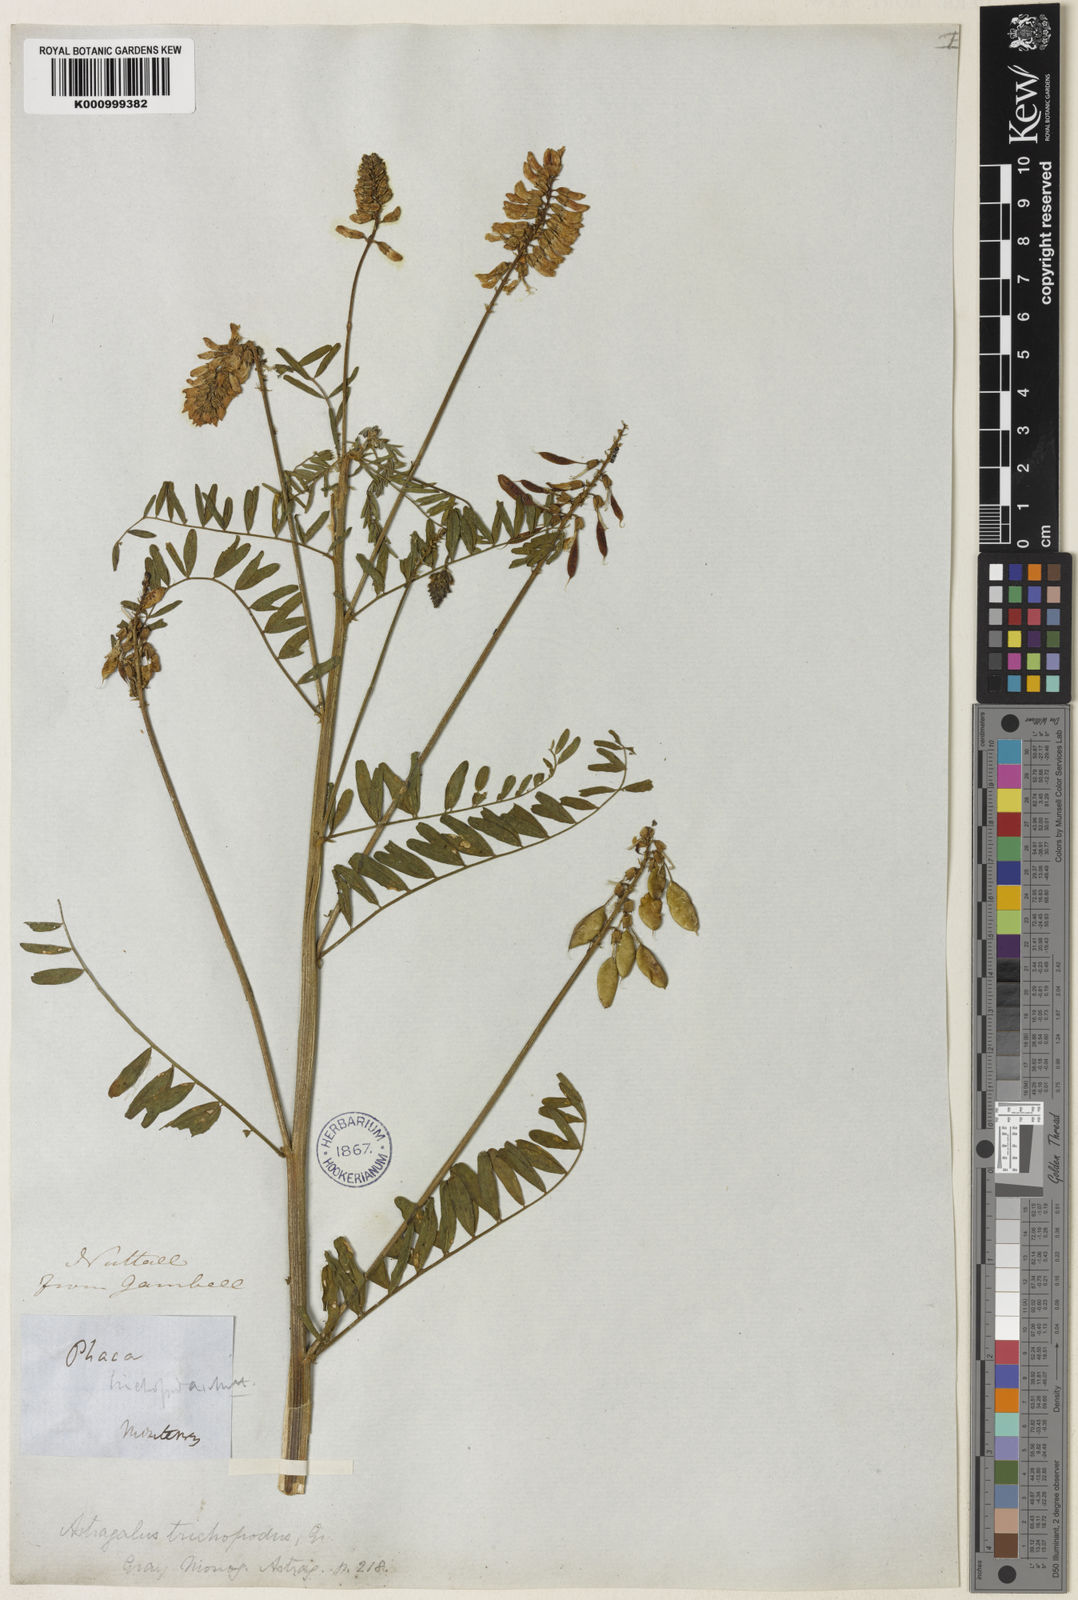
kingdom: Plantae
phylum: Tracheophyta
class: Magnoliopsida
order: Fabales
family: Fabaceae
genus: Astragalus
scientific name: Astragalus trichopodus
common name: Santa barbara milk-vetch
